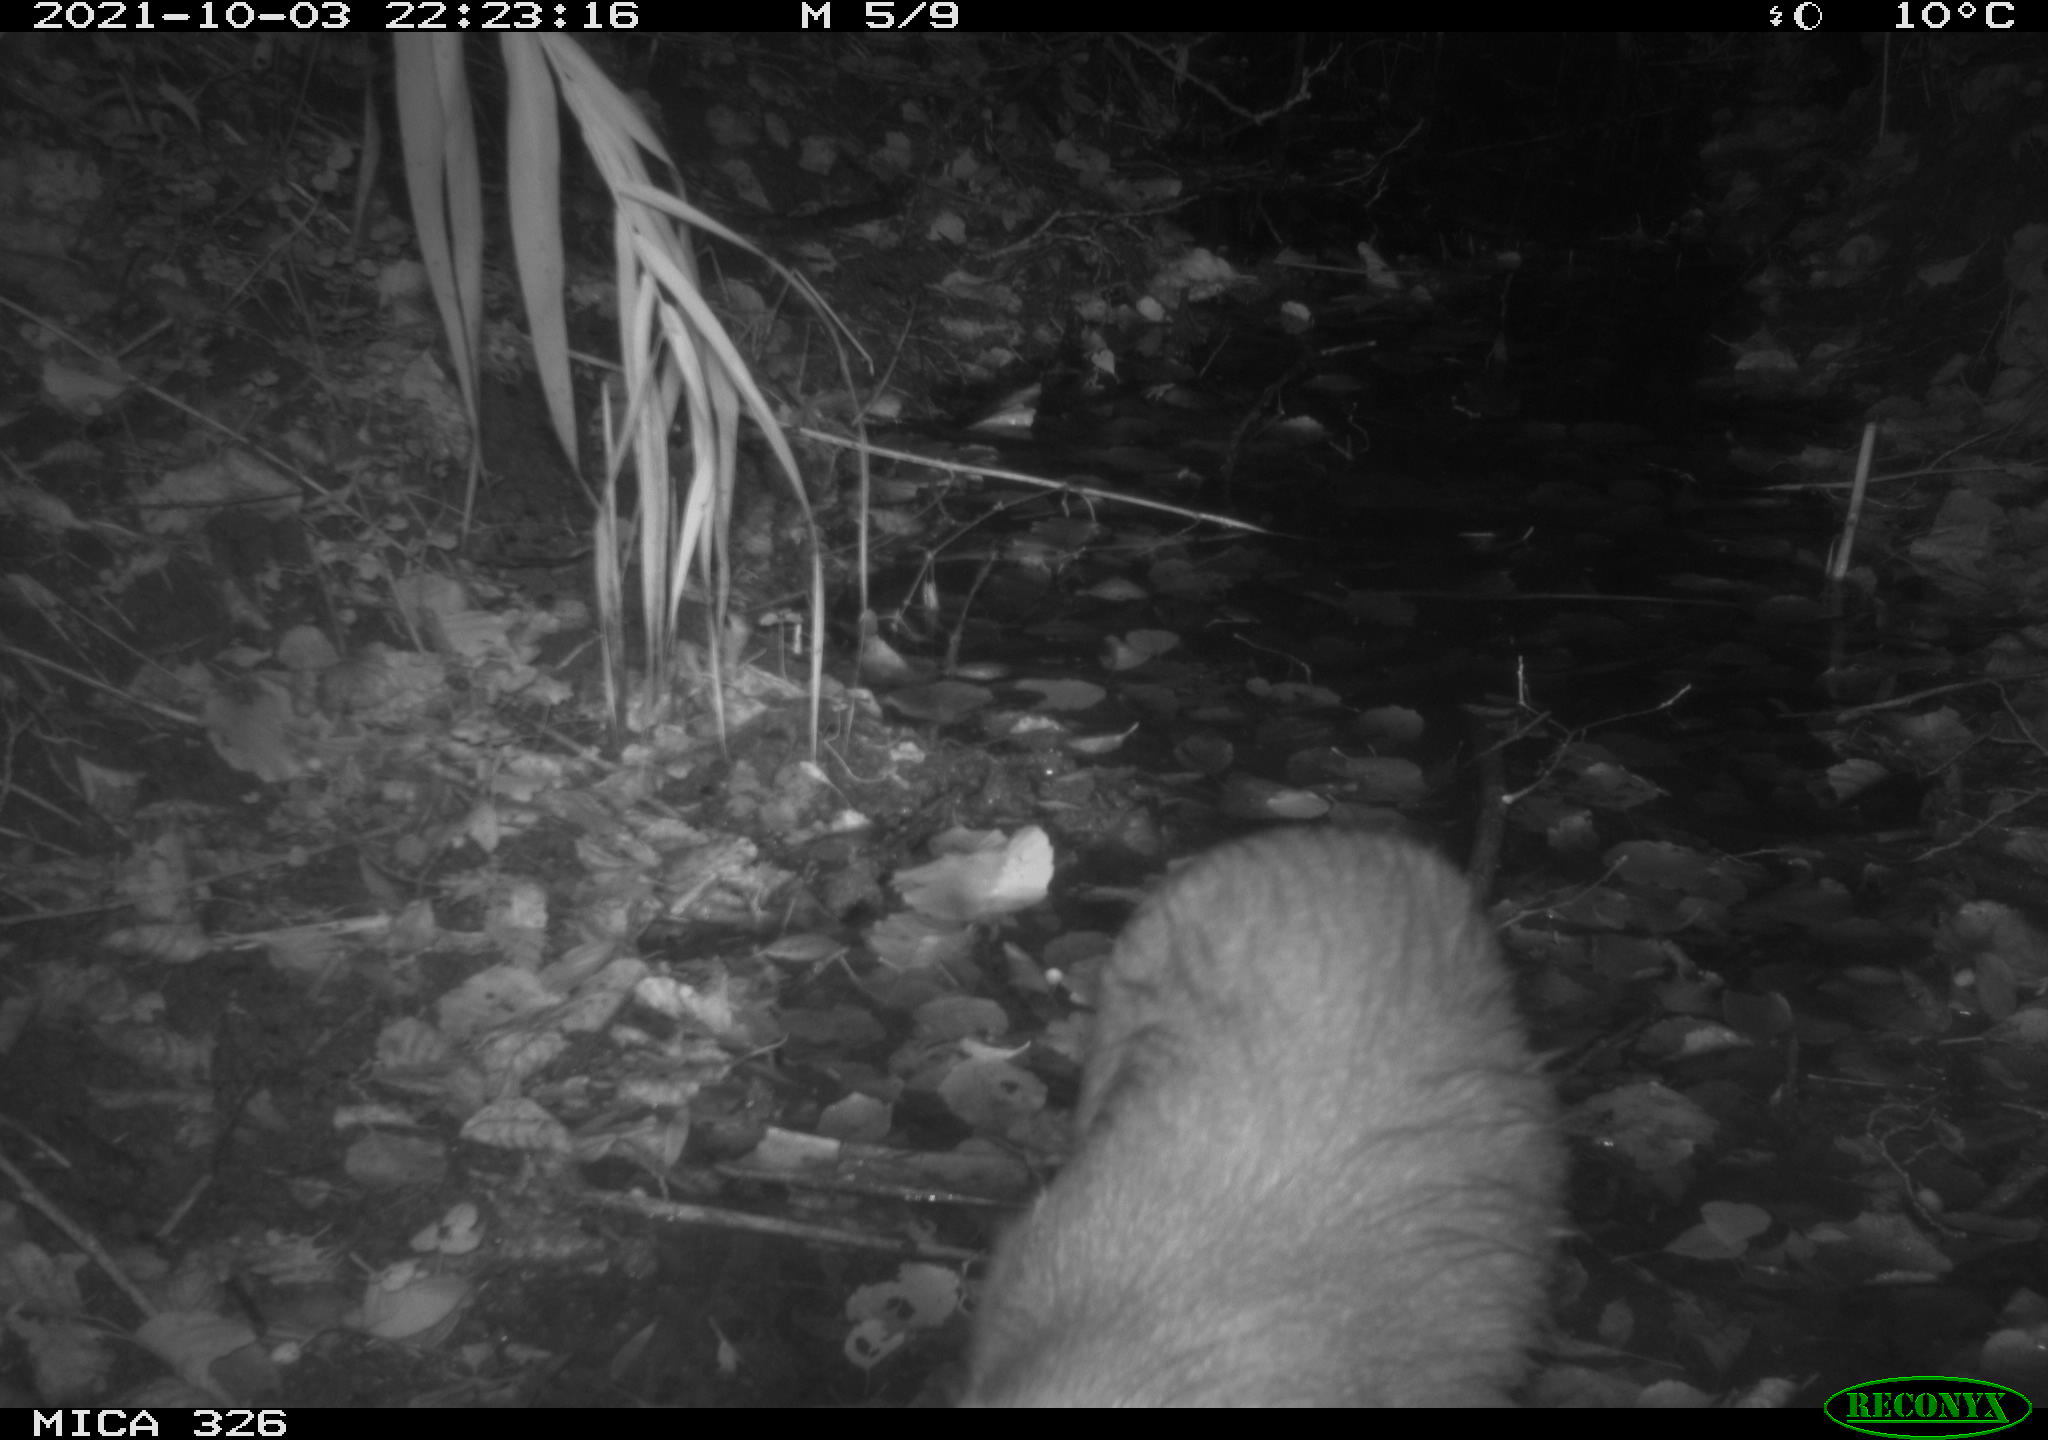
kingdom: Animalia
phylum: Chordata
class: Mammalia
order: Rodentia
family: Myocastoridae
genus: Myocastor
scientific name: Myocastor coypus
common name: Coypu
